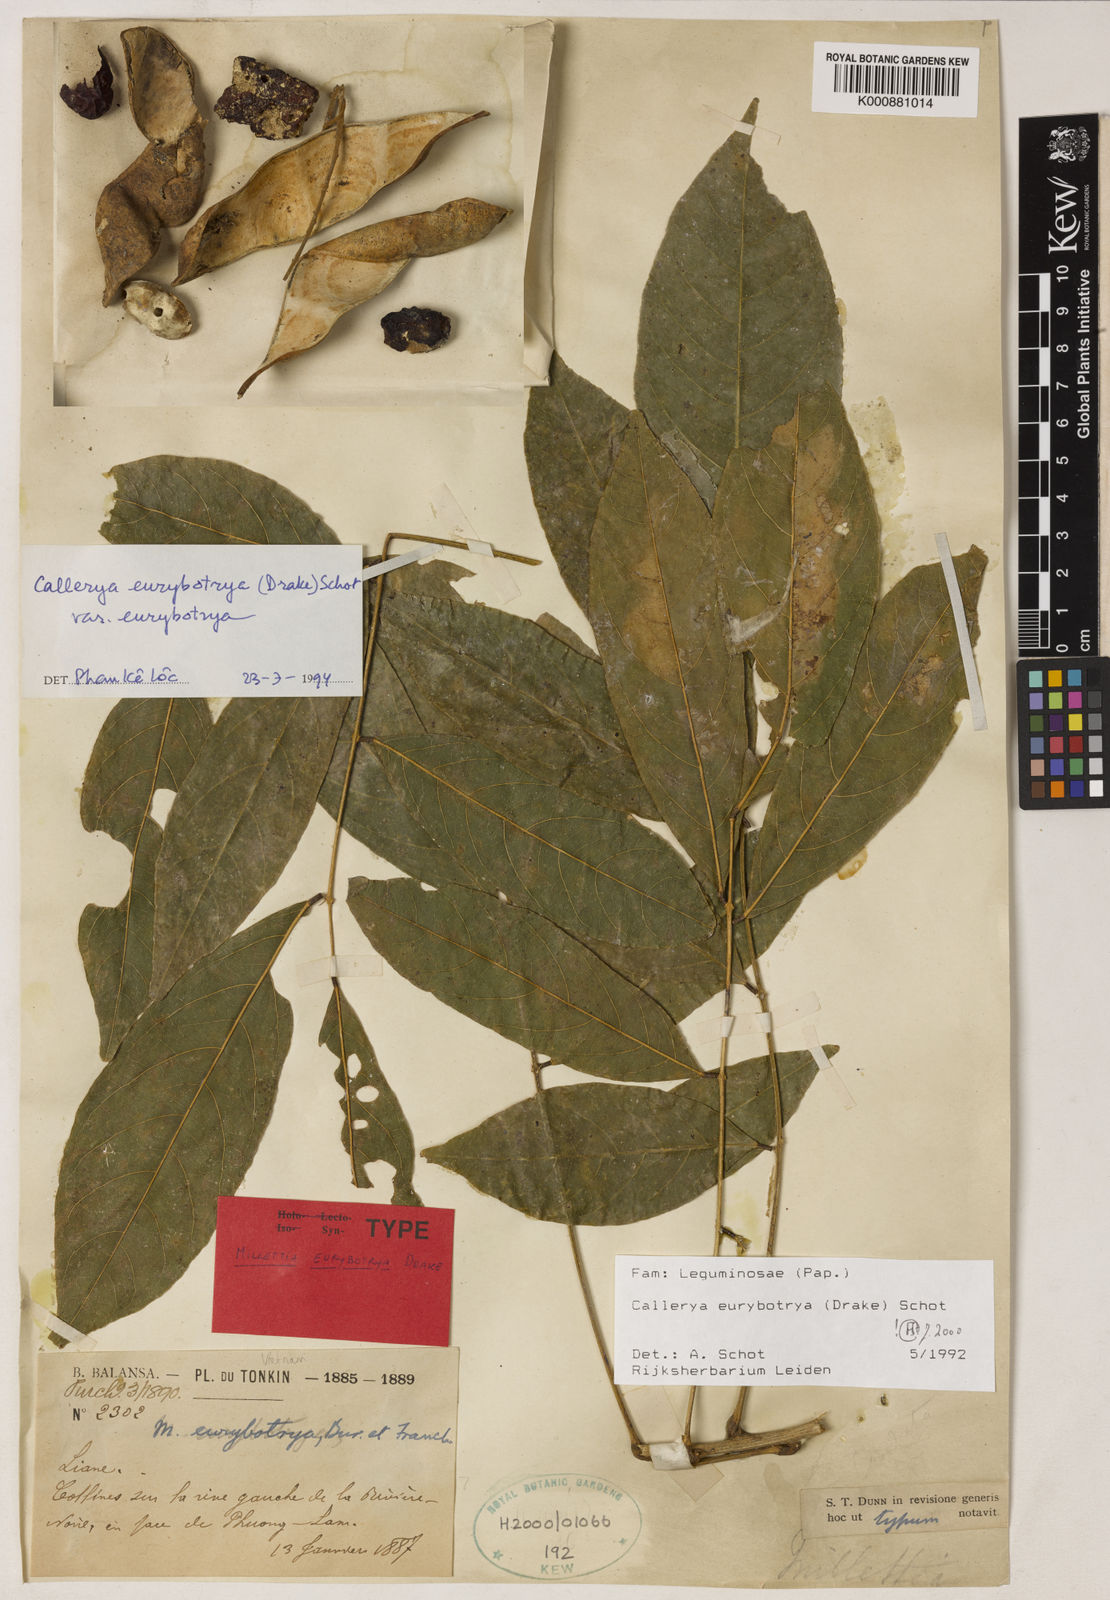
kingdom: Plantae
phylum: Tracheophyta
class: Magnoliopsida
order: Fabales
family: Fabaceae
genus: Wisteriopsis
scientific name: Wisteriopsis eurybotrya
